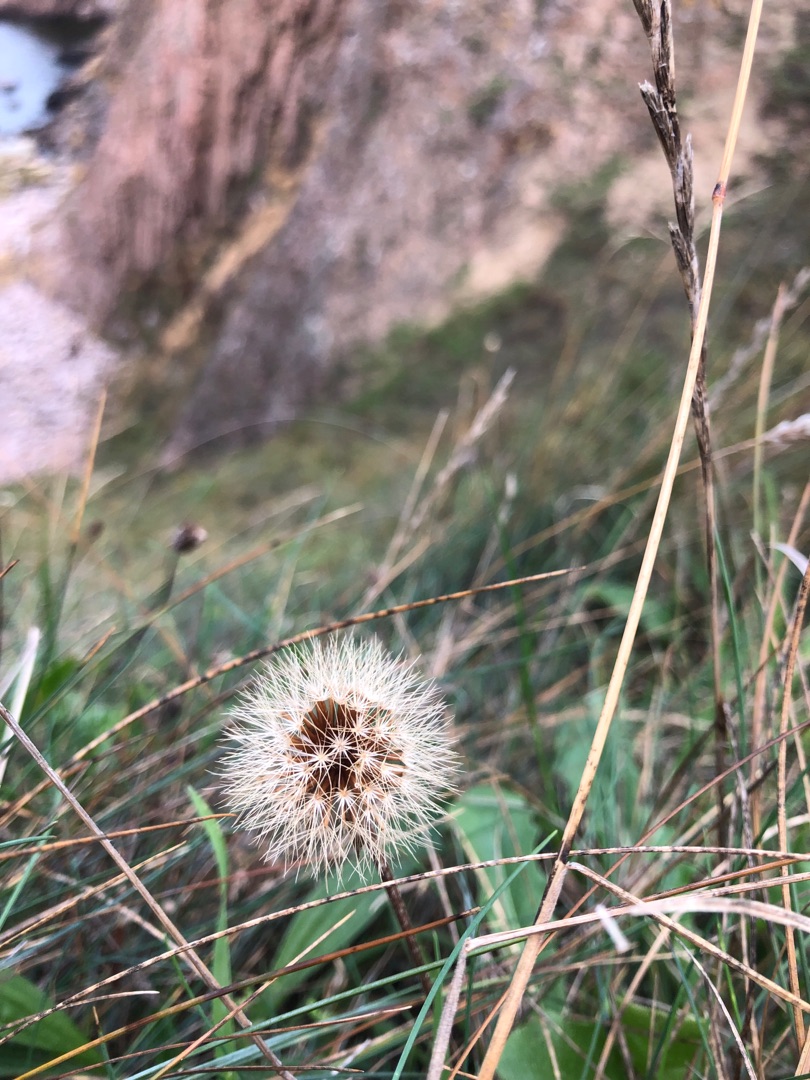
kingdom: Plantae
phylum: Tracheophyta
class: Magnoliopsida
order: Asterales
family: Asteraceae
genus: Leontodon
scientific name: Leontodon hispidus
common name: Stivhåret borst
